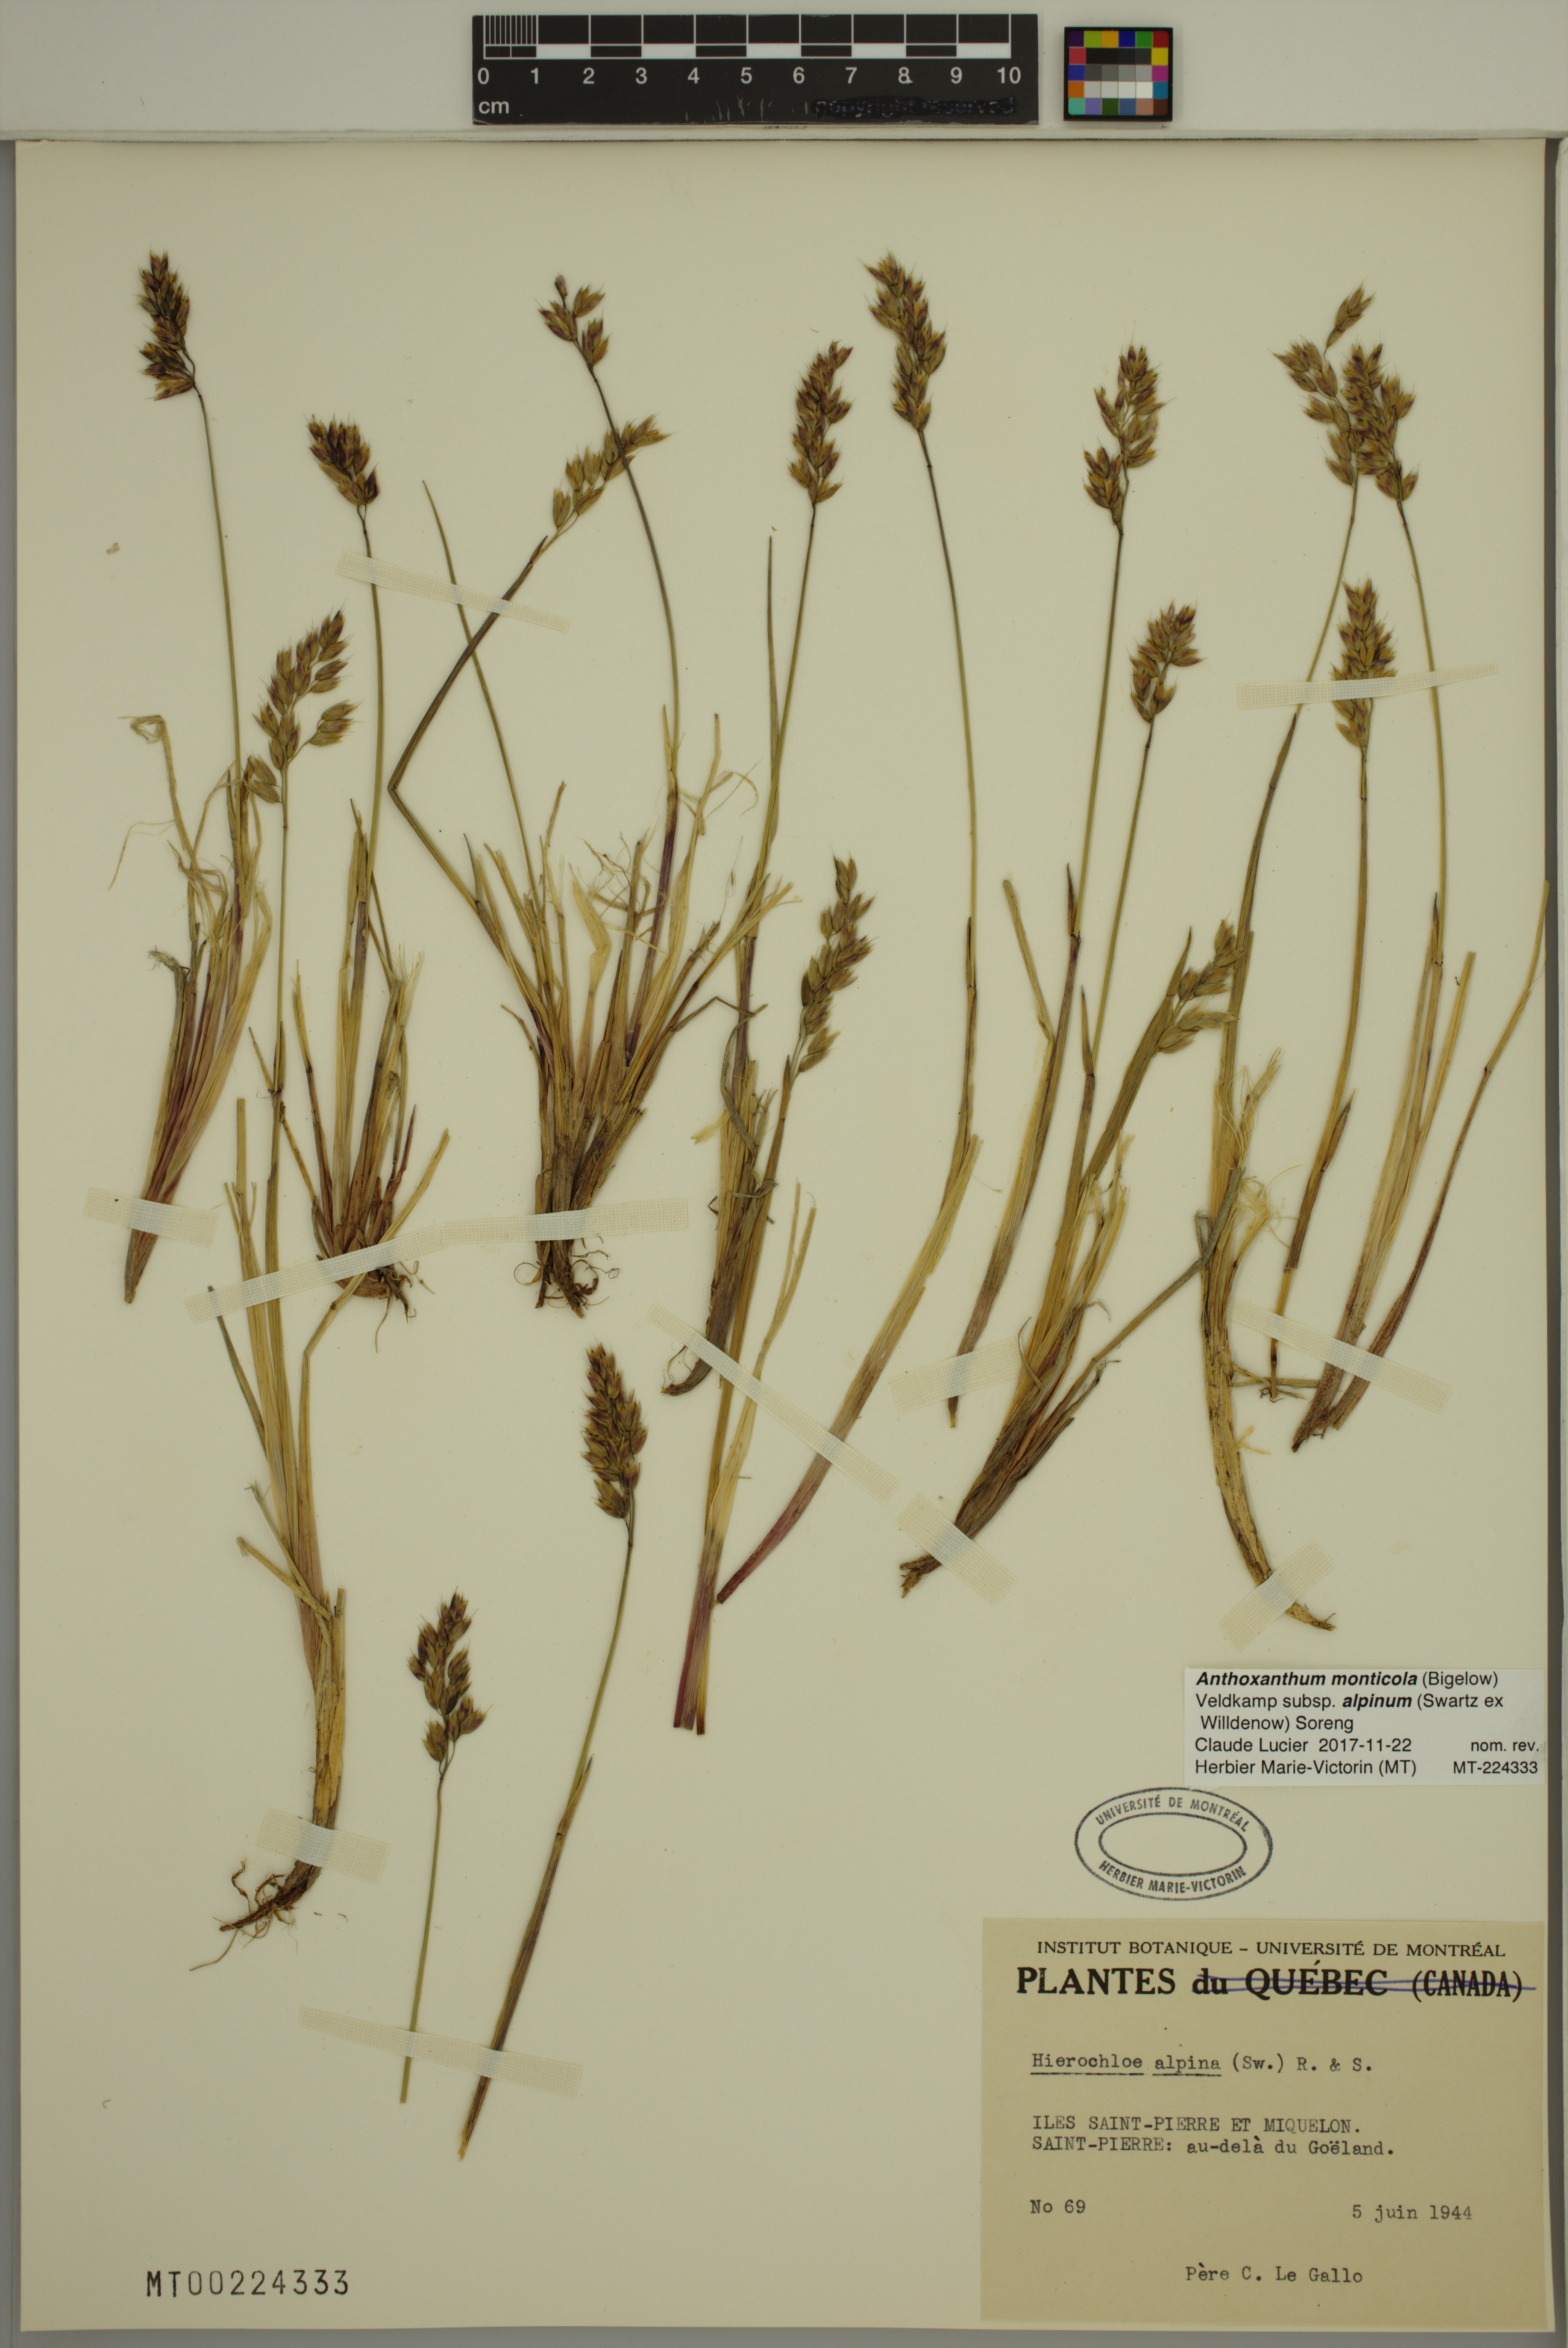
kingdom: Plantae
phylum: Tracheophyta
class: Liliopsida
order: Poales
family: Poaceae
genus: Anthoxanthum
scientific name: Anthoxanthum monticola
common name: Alpine sweetgrass
